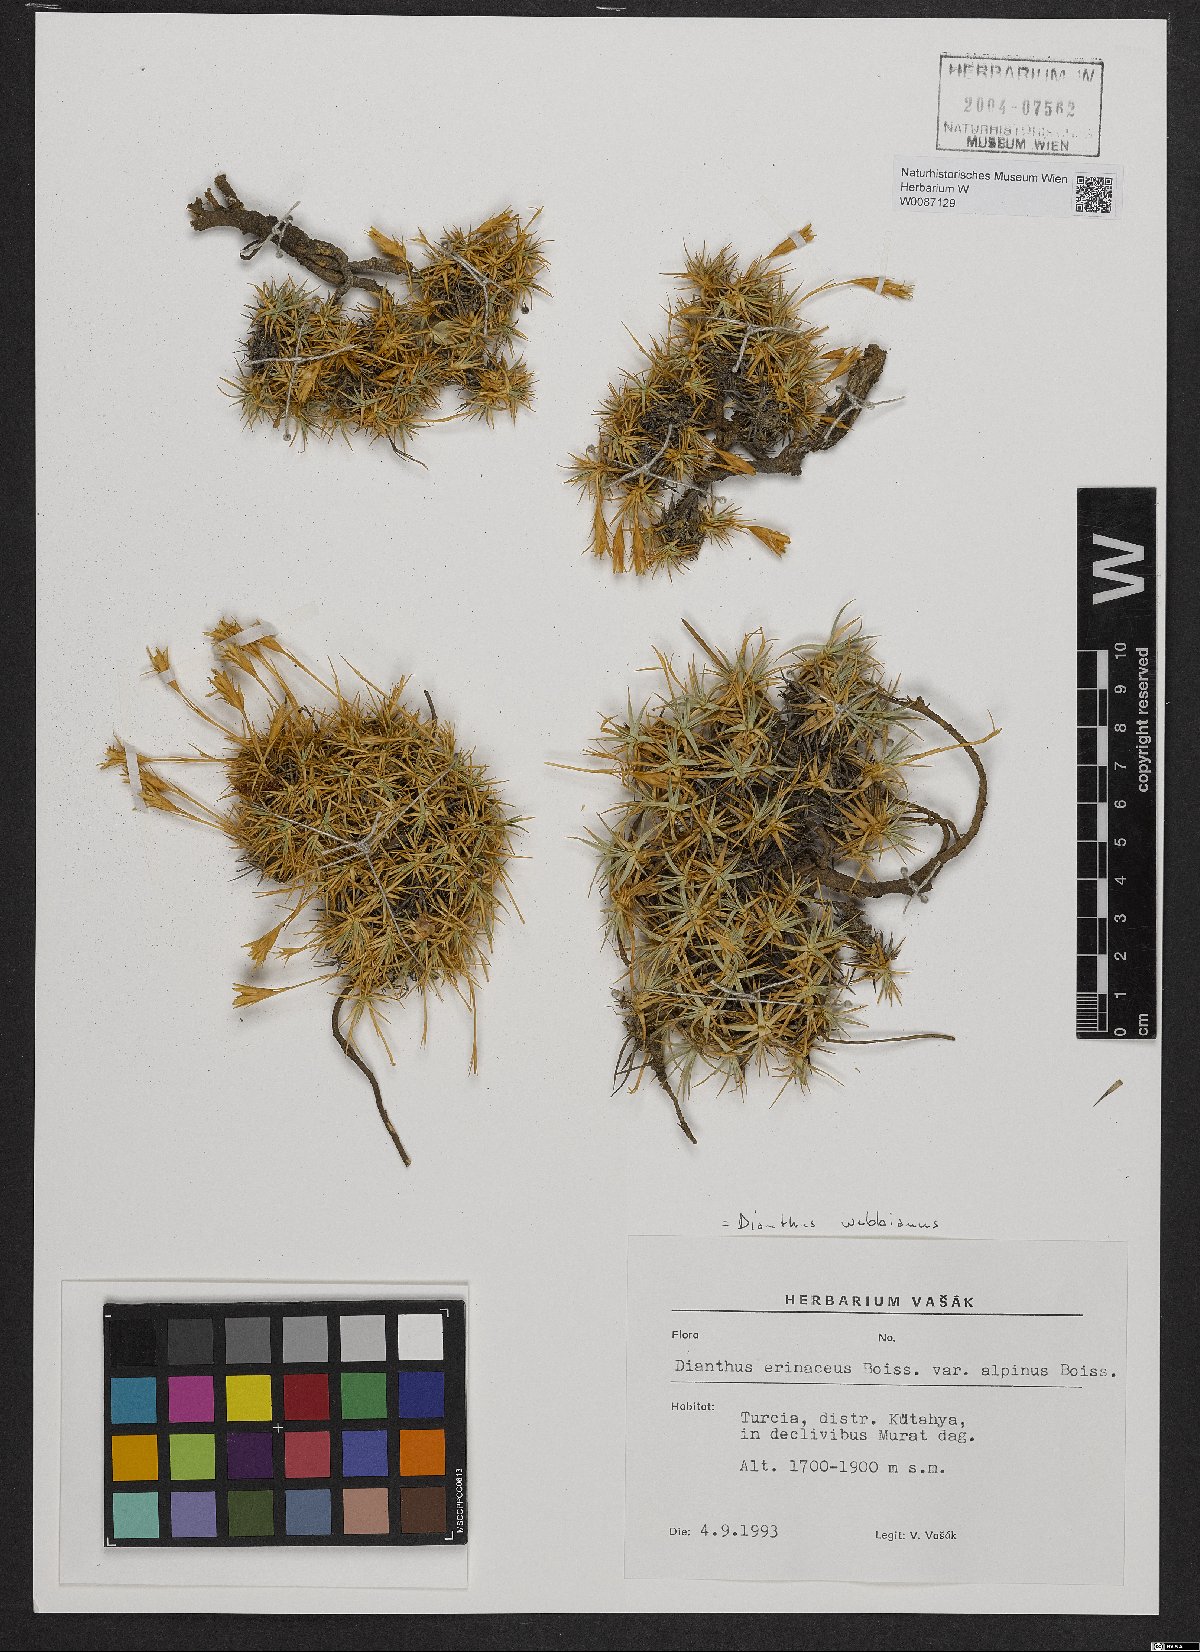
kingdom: Plantae
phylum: Tracheophyta
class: Magnoliopsida
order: Caryophyllales
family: Caryophyllaceae
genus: Dianthus
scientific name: Dianthus webbianus
